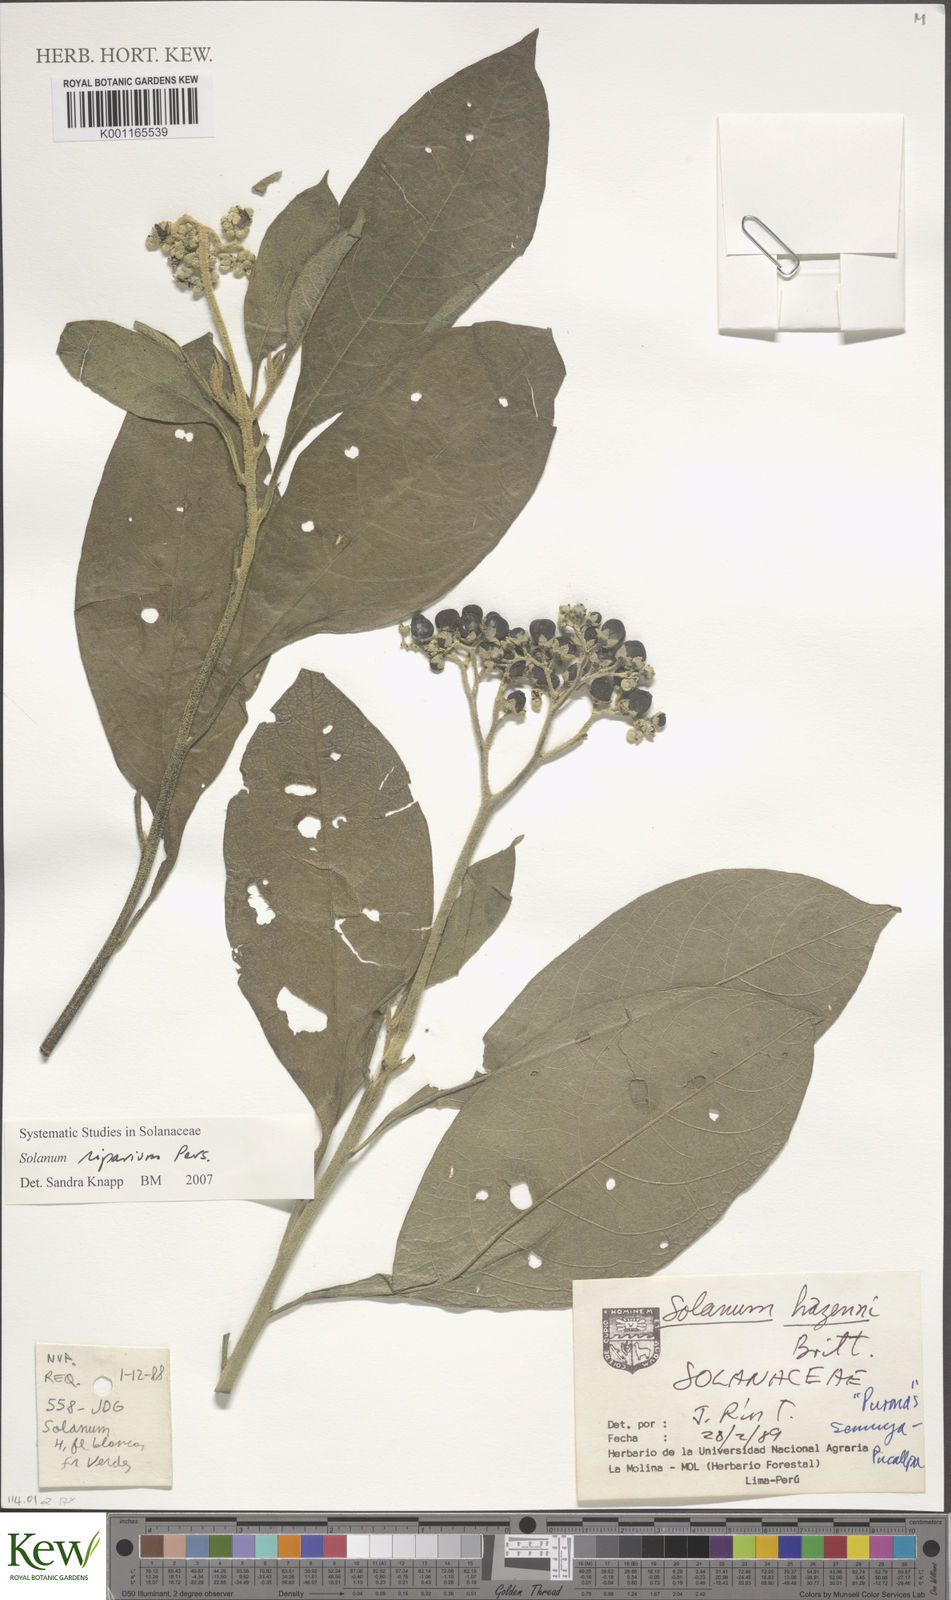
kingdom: Plantae
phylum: Tracheophyta
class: Magnoliopsida
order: Solanales
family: Solanaceae
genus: Solanum
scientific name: Solanum riparium
